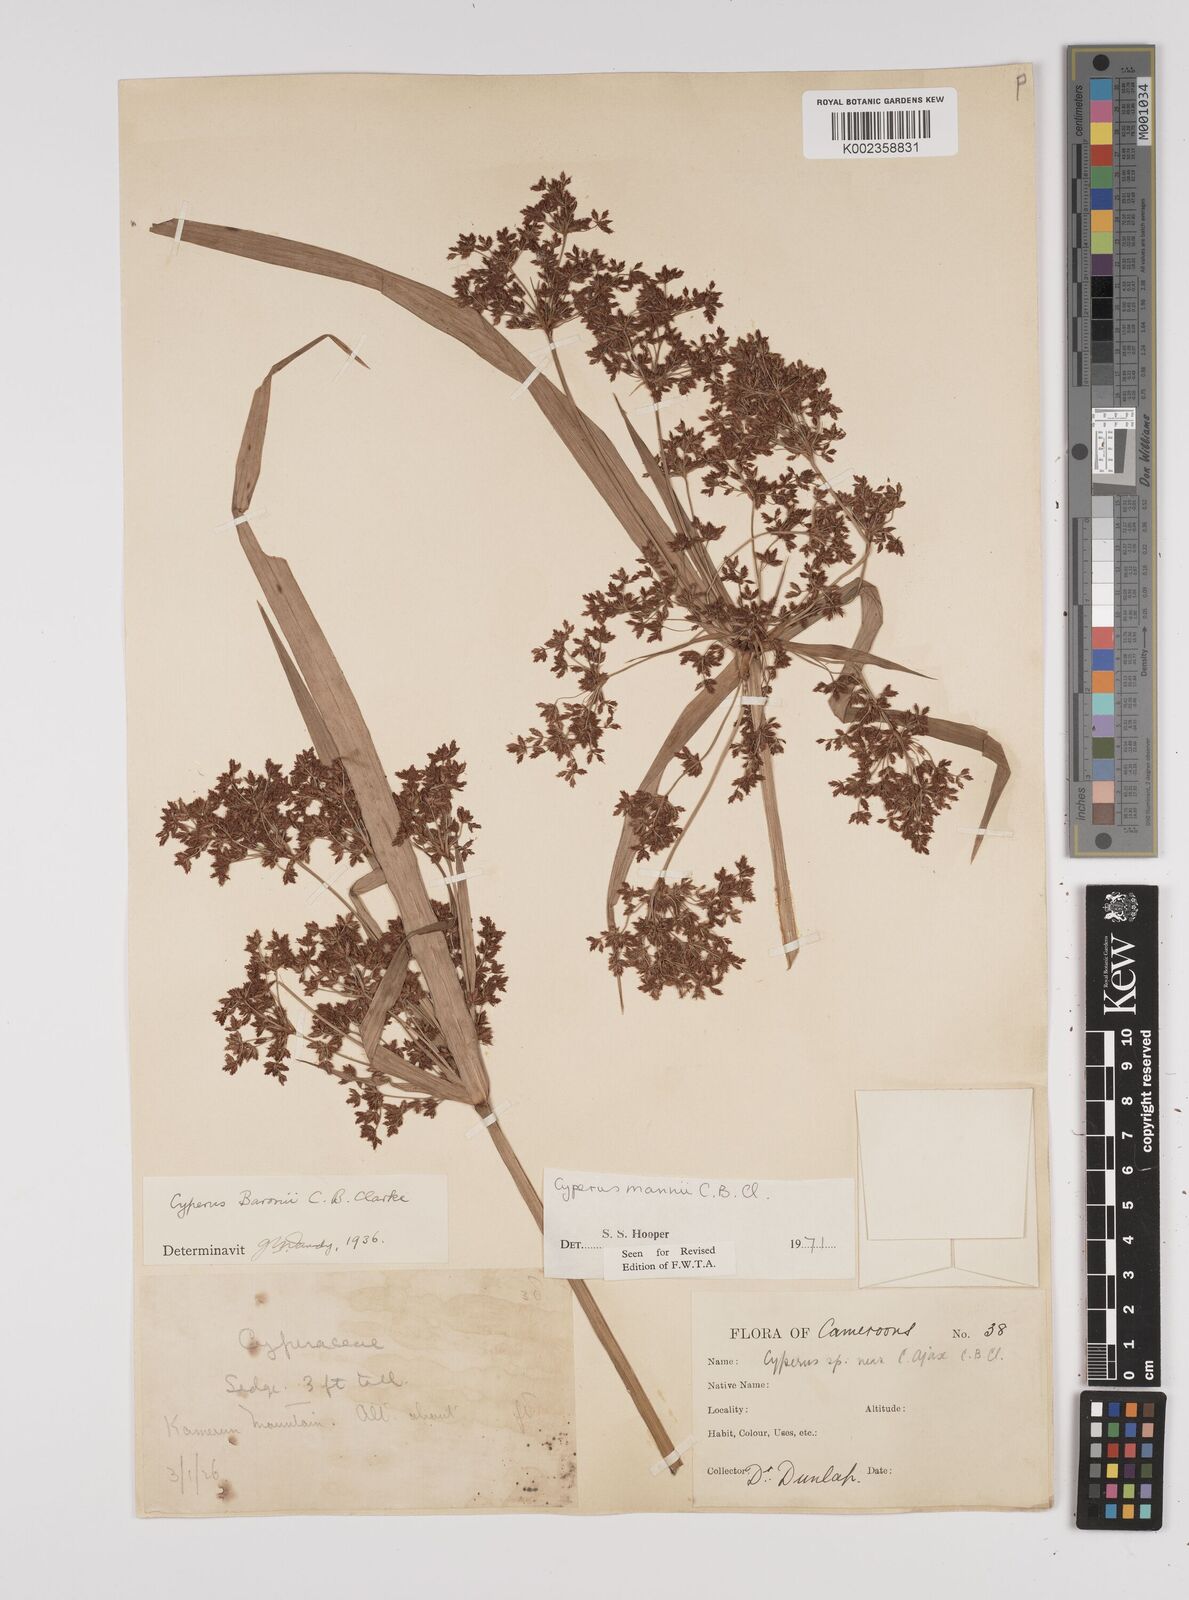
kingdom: Plantae
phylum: Tracheophyta
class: Liliopsida
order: Poales
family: Cyperaceae
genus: Cyperus
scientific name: Cyperus baronii
